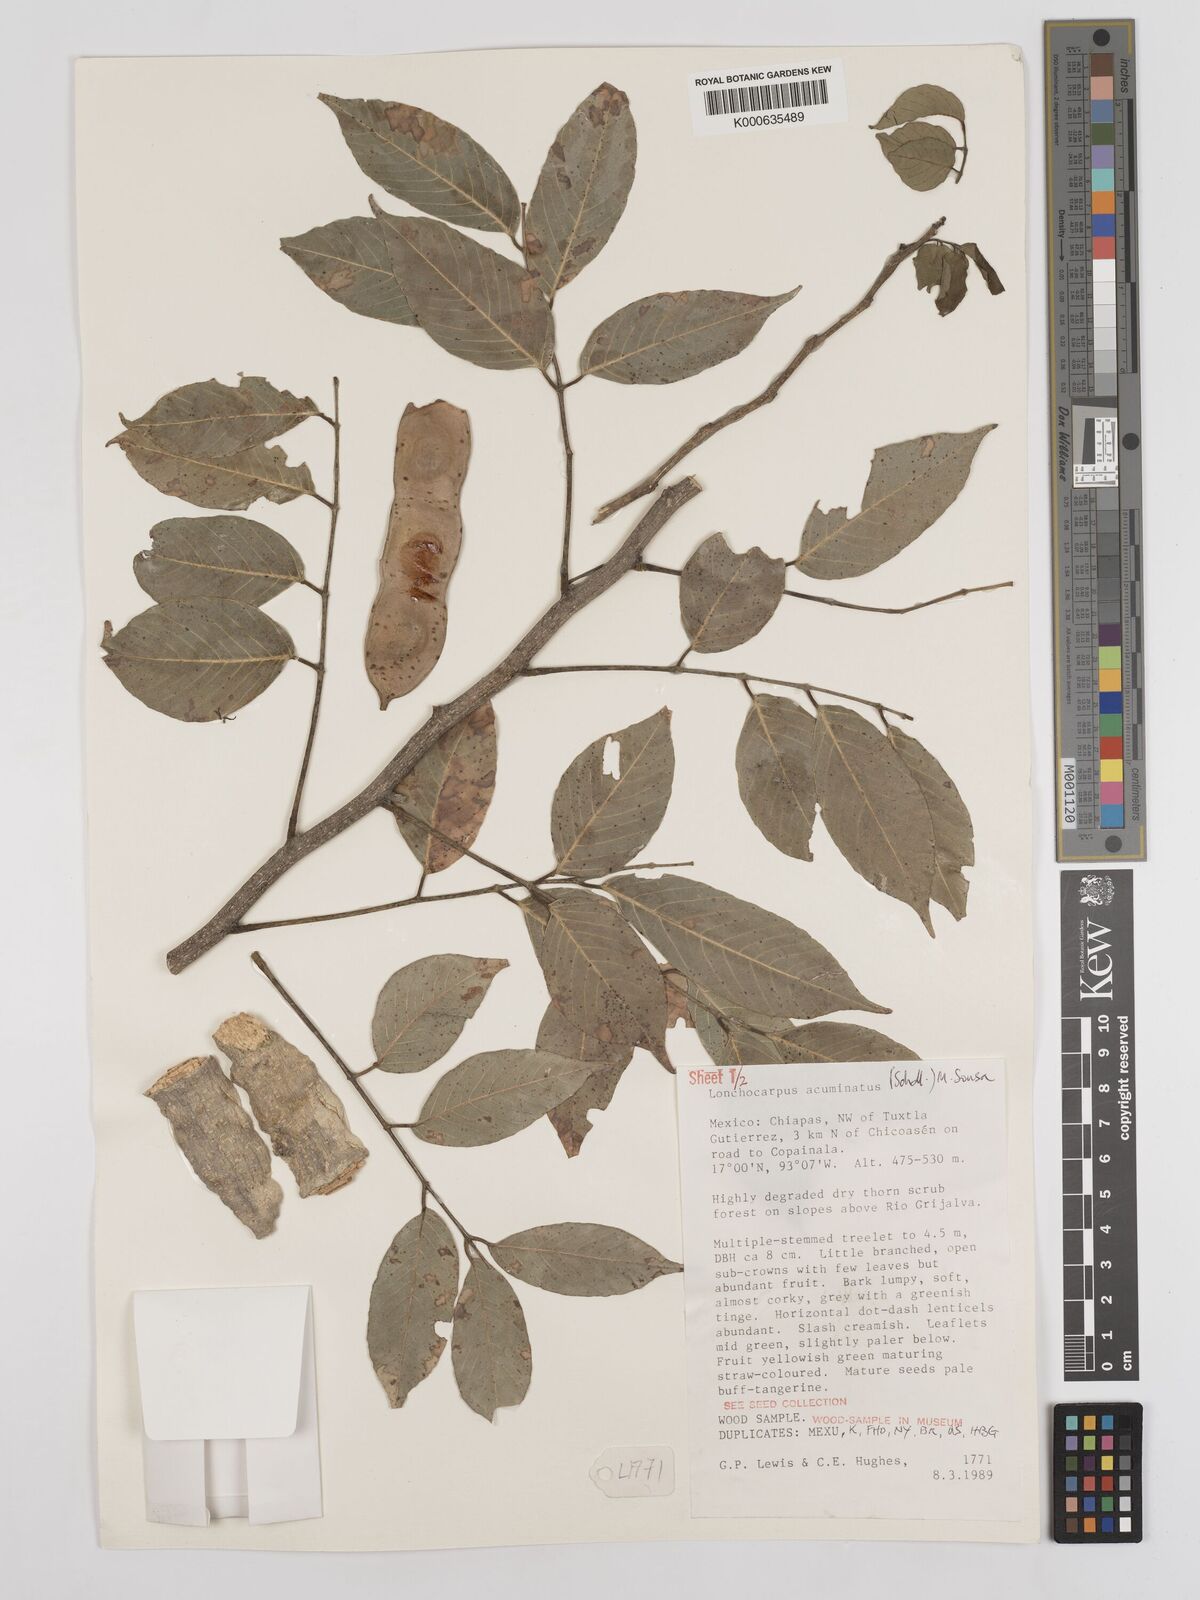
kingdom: Plantae
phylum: Tracheophyta
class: Magnoliopsida
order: Fabales
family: Fabaceae
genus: Lonchocarpus
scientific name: Lonchocarpus acuminatus
